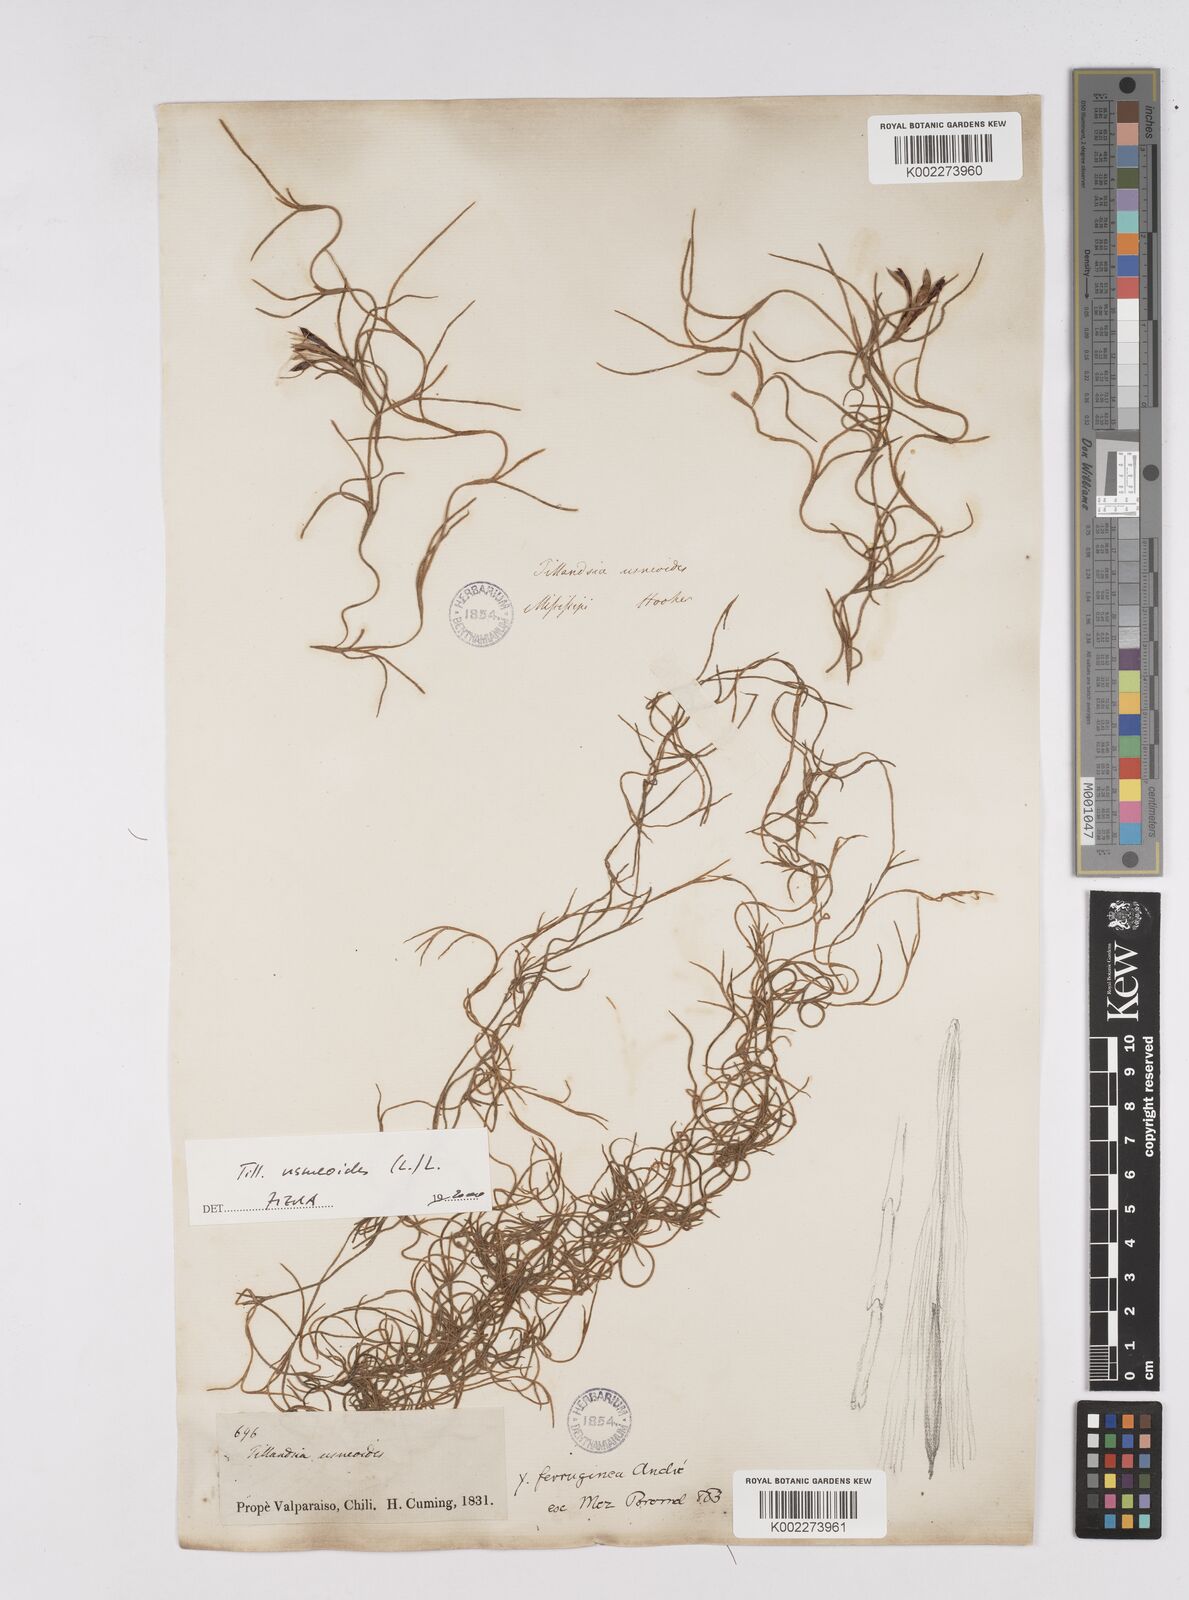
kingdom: Plantae
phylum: Tracheophyta
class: Liliopsida
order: Poales
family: Bromeliaceae
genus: Tillandsia
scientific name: Tillandsia usneoides
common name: Spanish moss
